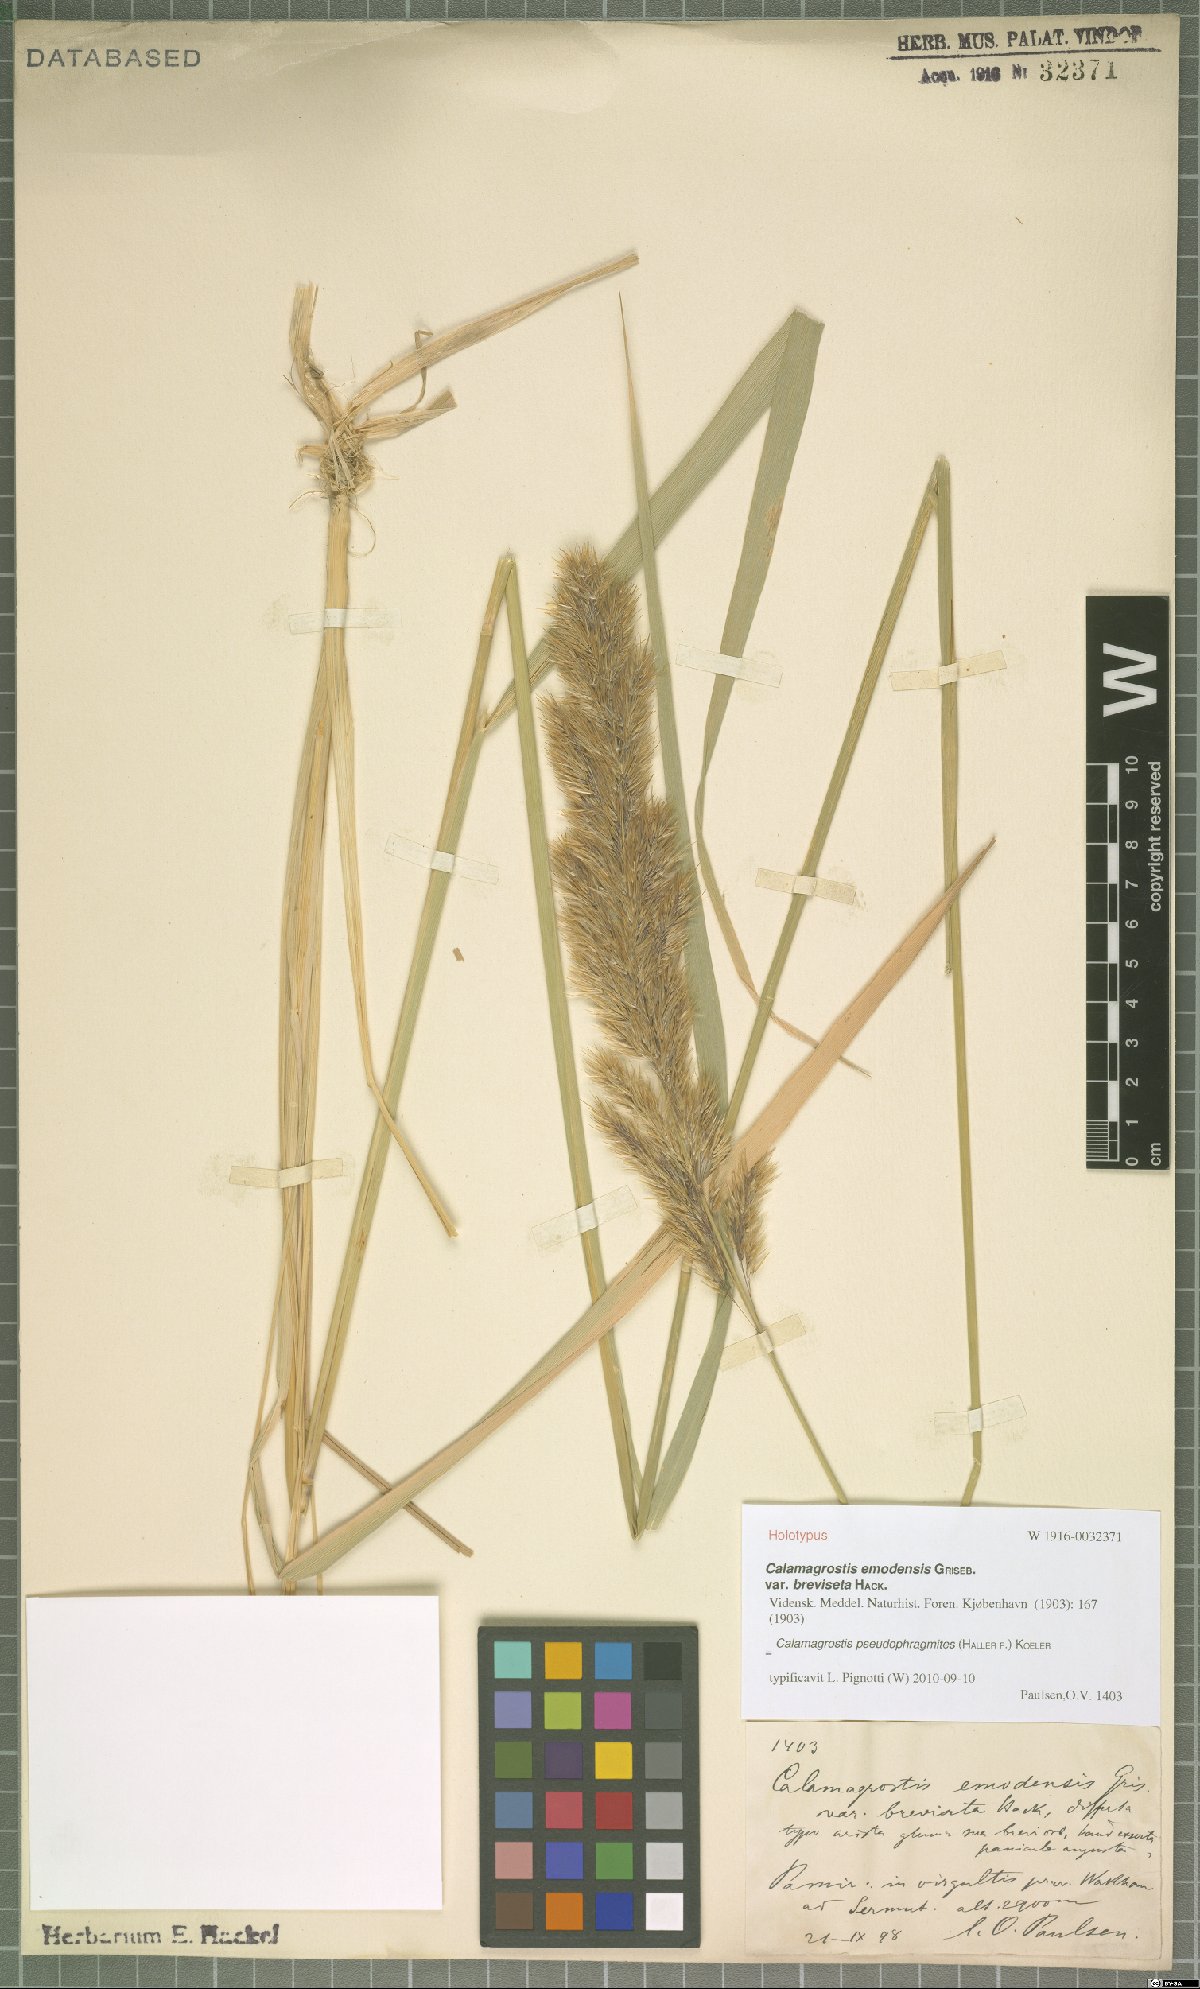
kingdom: Plantae
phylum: Tracheophyta
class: Liliopsida
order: Poales
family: Poaceae
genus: Calamagrostis
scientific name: Calamagrostis macrolepis
